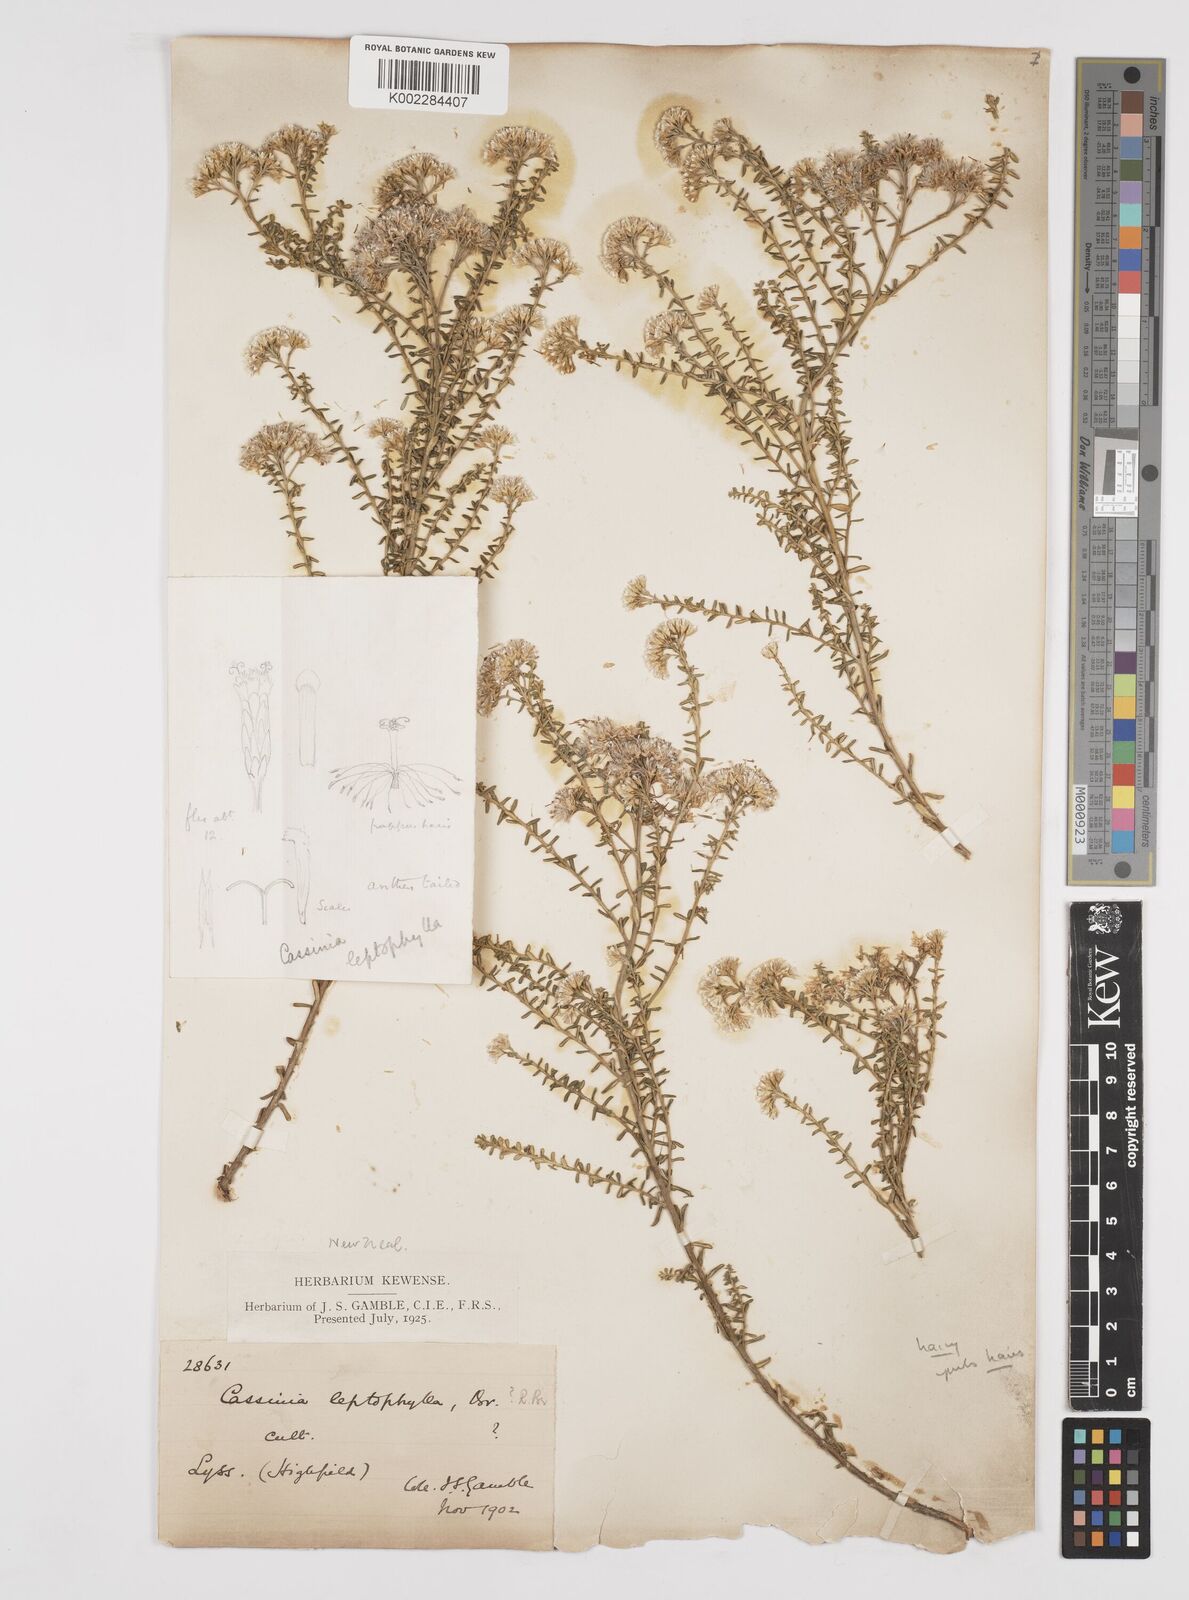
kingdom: Plantae
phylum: Tracheophyta
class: Magnoliopsida
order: Asterales
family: Asteraceae
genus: Ozothamnus
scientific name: Ozothamnus leptophyllus
